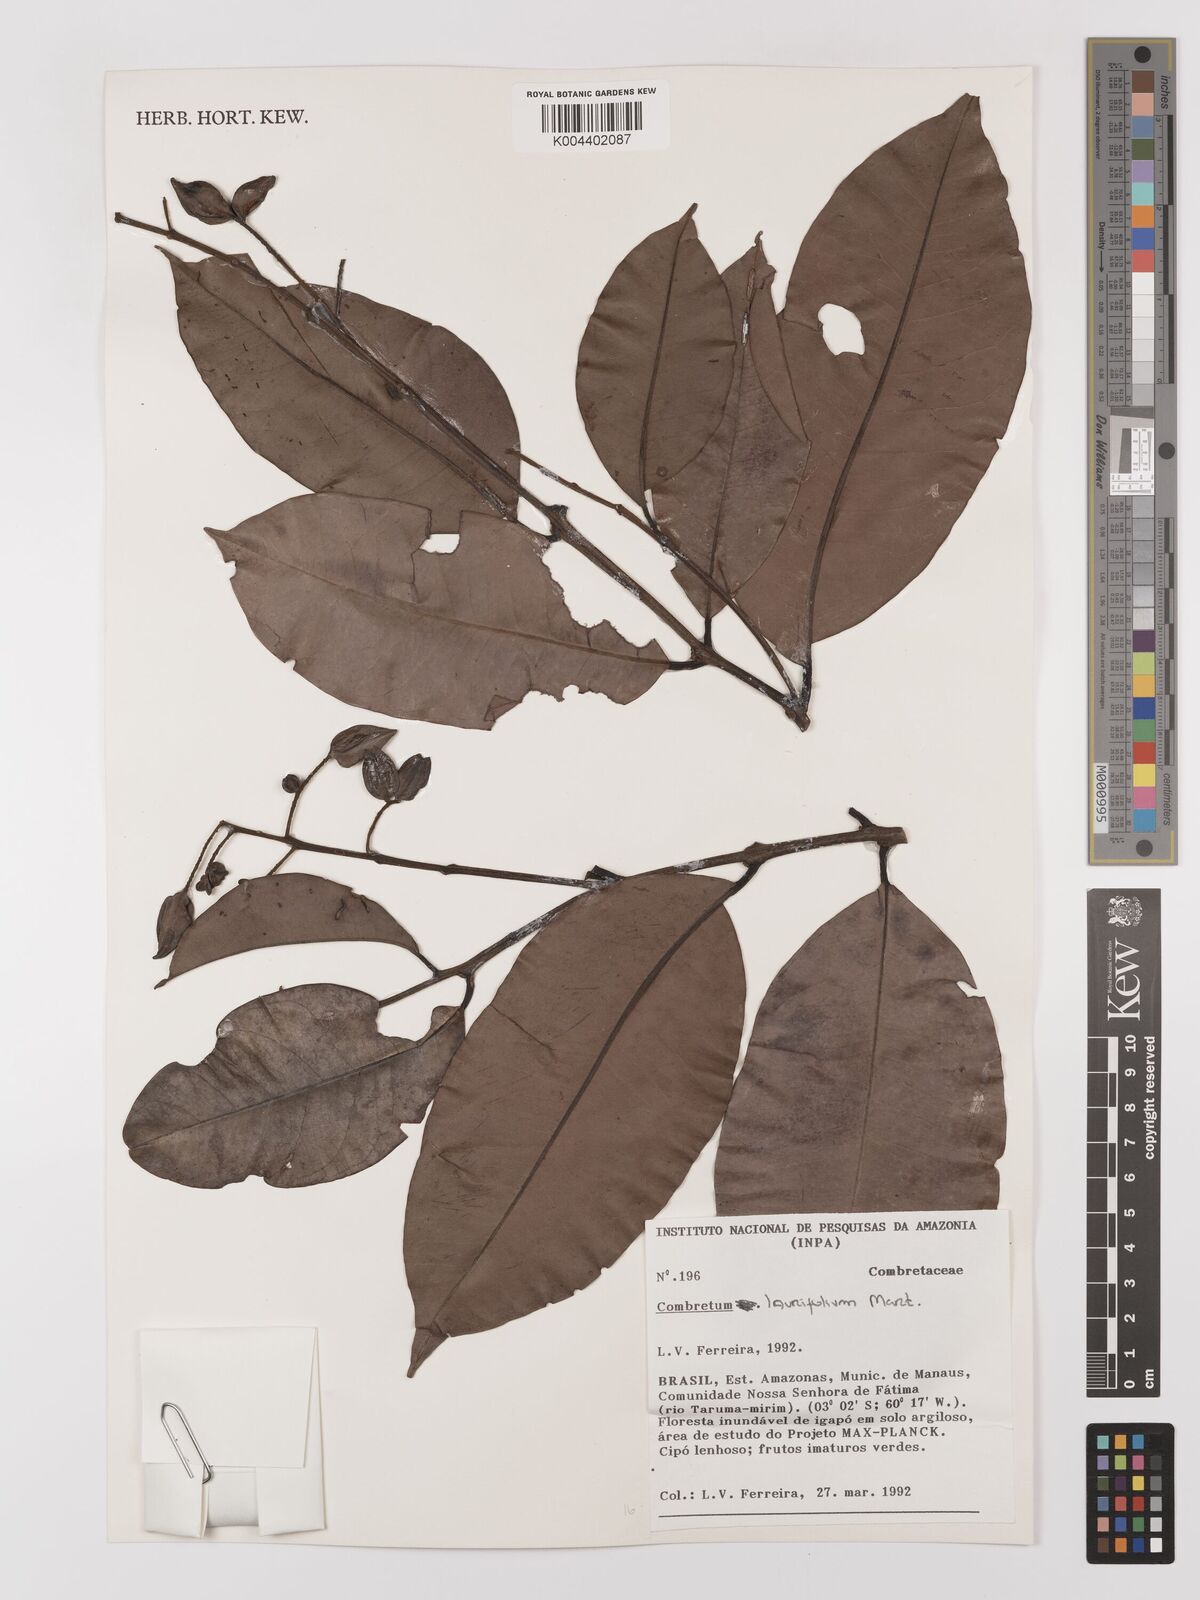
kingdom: Plantae
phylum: Tracheophyta
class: Magnoliopsida
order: Myrtales
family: Combretaceae
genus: Combretum
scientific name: Combretum
